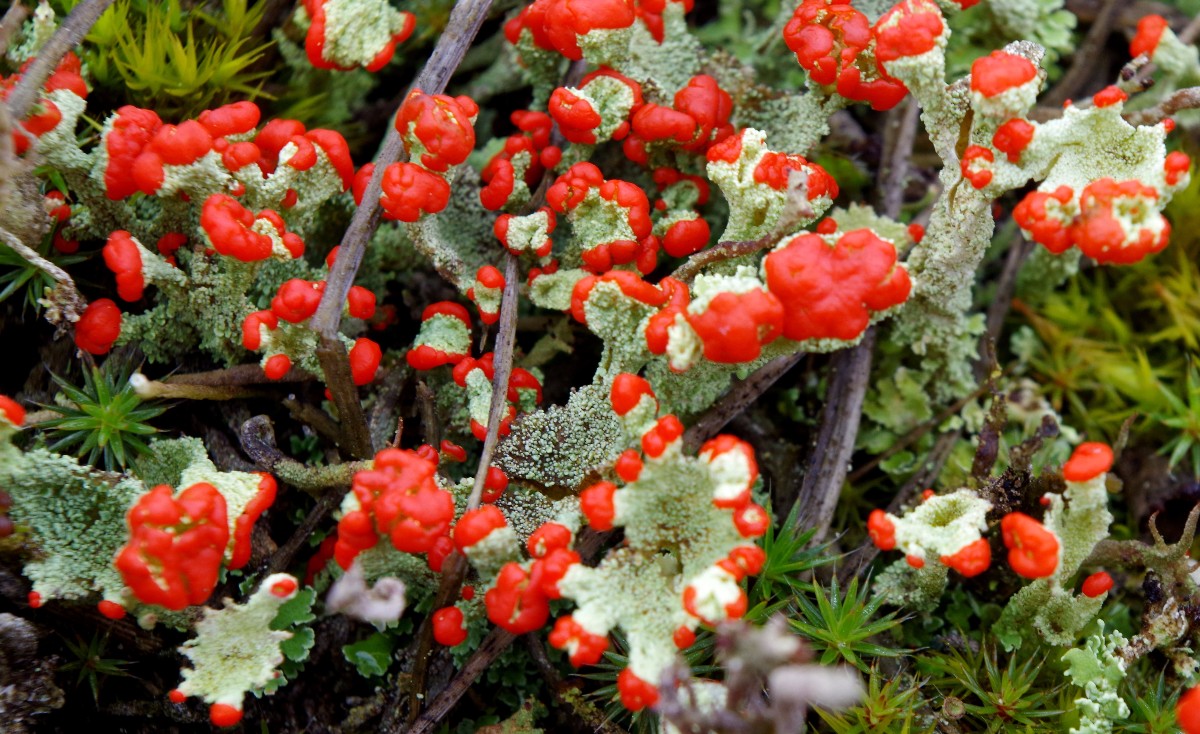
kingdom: Fungi
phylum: Ascomycota
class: Lecanoromycetes
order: Lecanorales
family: Cladoniaceae
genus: Cladonia
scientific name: Cladonia diversa
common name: rød bægerlav
